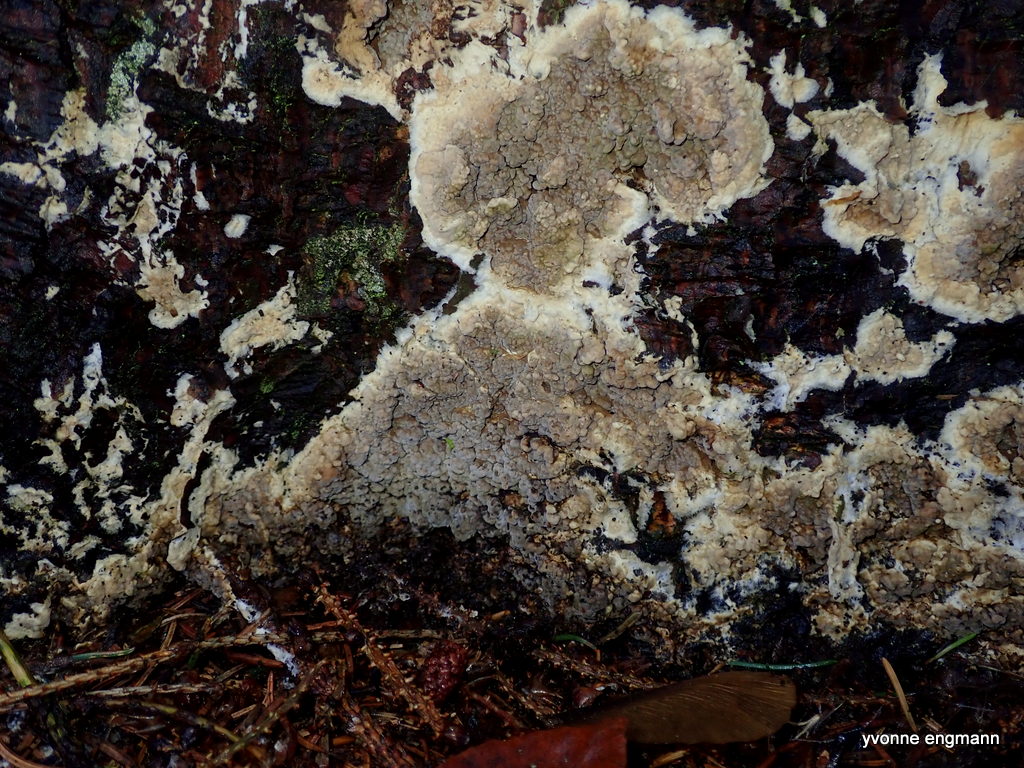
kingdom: Fungi
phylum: Basidiomycota
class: Agaricomycetes
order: Boletales
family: Coniophoraceae
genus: Coniophora
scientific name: Coniophora puteana
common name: gul tømmersvamp
